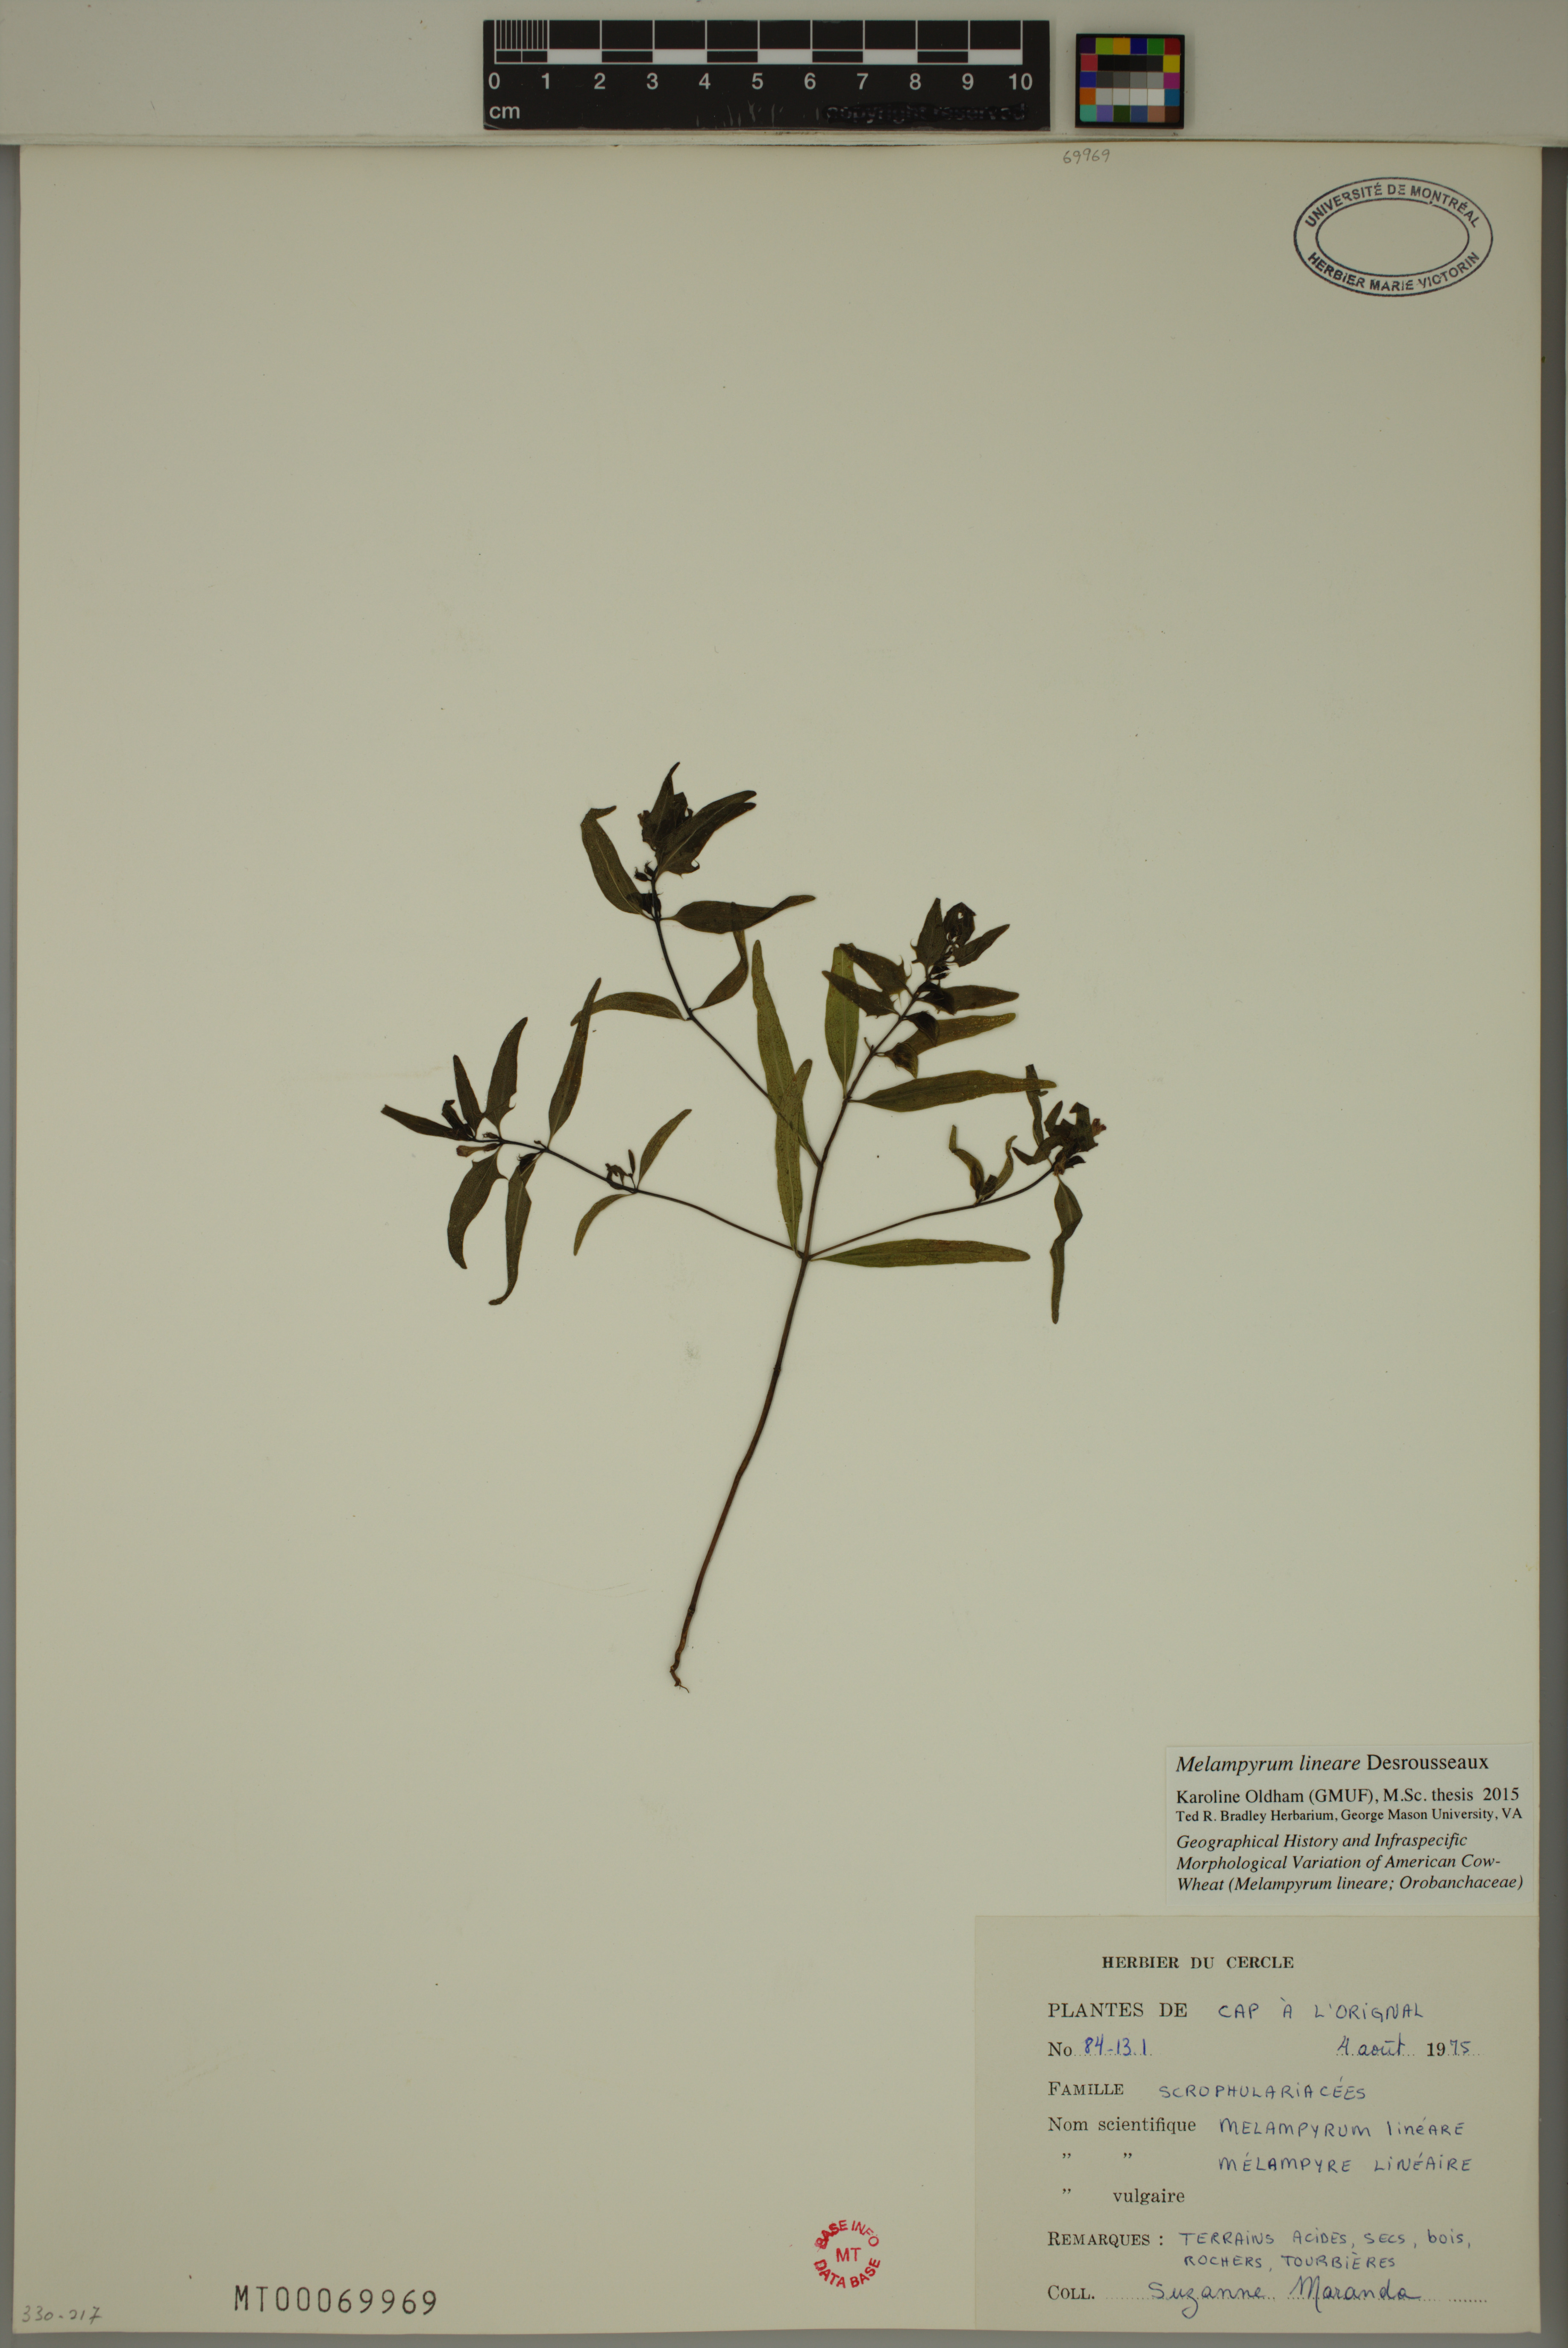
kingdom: Plantae
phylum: Tracheophyta
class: Magnoliopsida
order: Lamiales
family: Orobanchaceae
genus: Melampyrum
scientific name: Melampyrum lineare
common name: American cow-wheat
